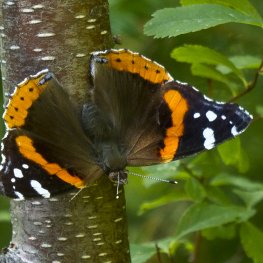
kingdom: Animalia
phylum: Arthropoda
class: Insecta
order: Lepidoptera
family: Nymphalidae
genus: Vanessa
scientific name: Vanessa atalanta
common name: Red Admiral
